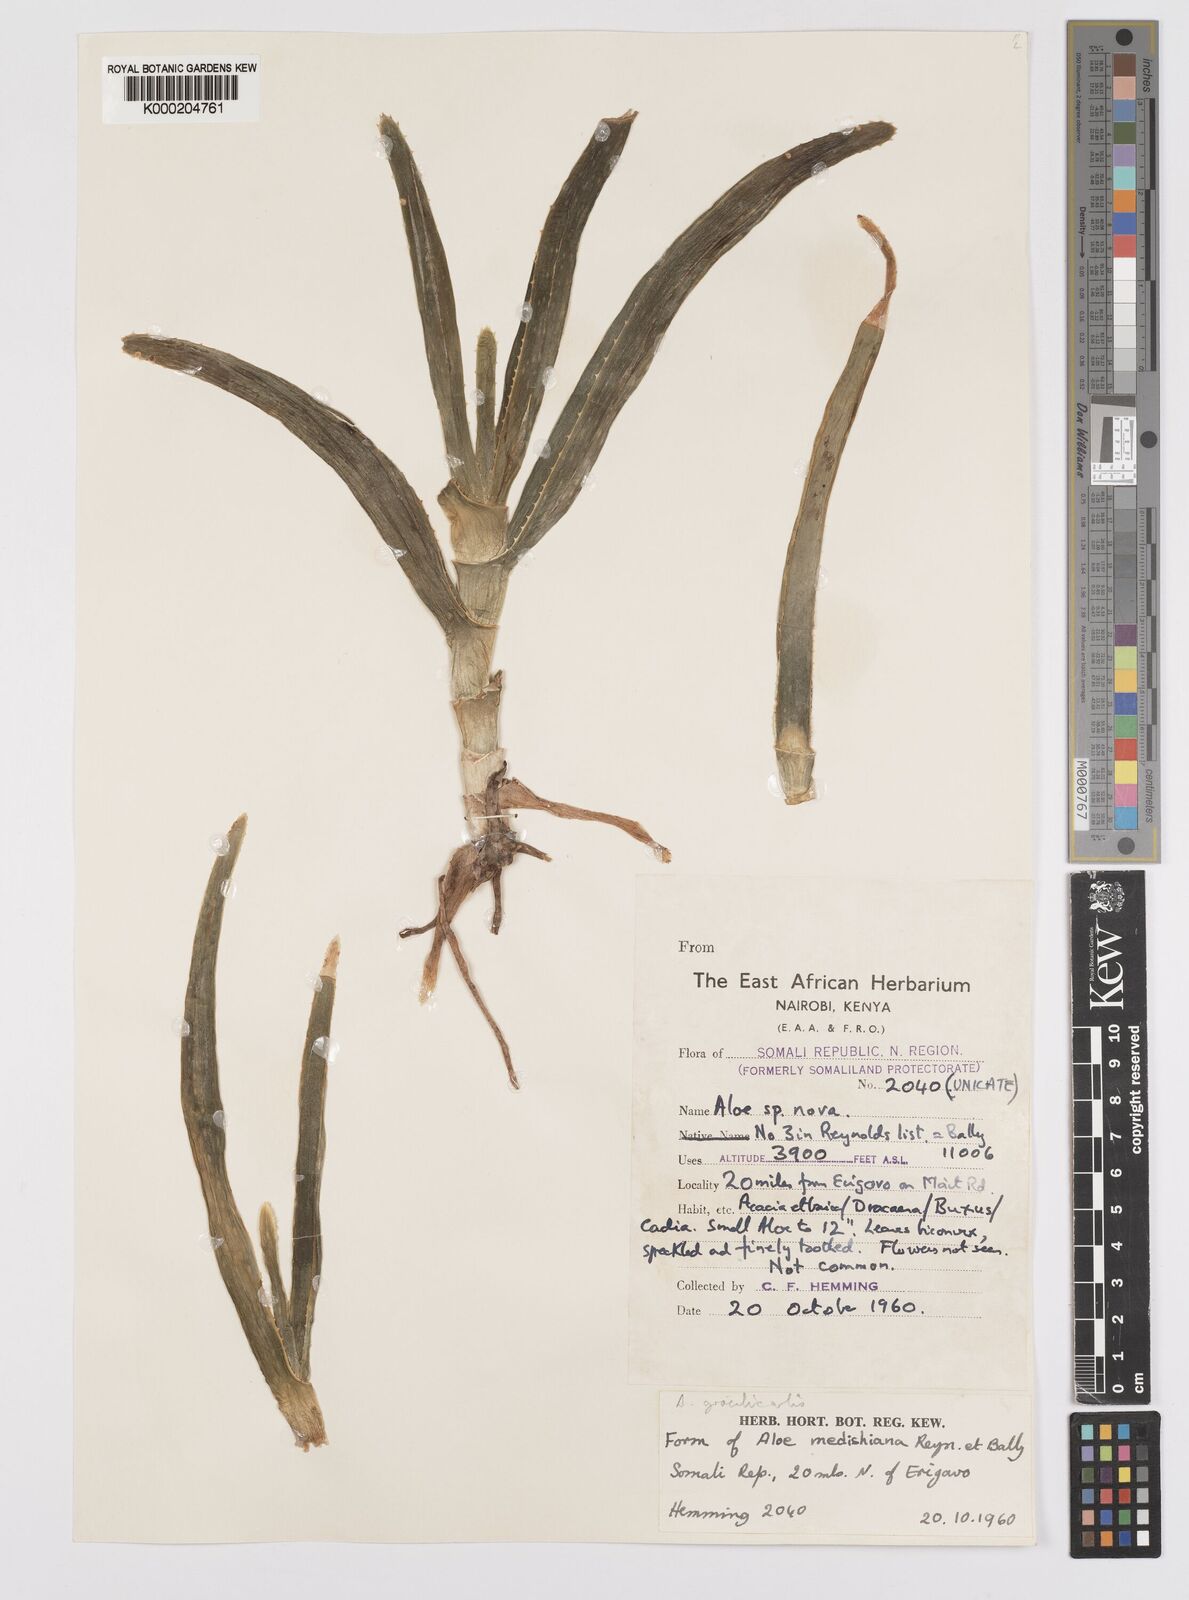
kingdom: Plantae
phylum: Tracheophyta
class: Liliopsida
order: Asparagales
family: Asphodelaceae
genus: Aloe
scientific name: Aloe gracilicaulis
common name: Soft distant sword-leaved aloe
